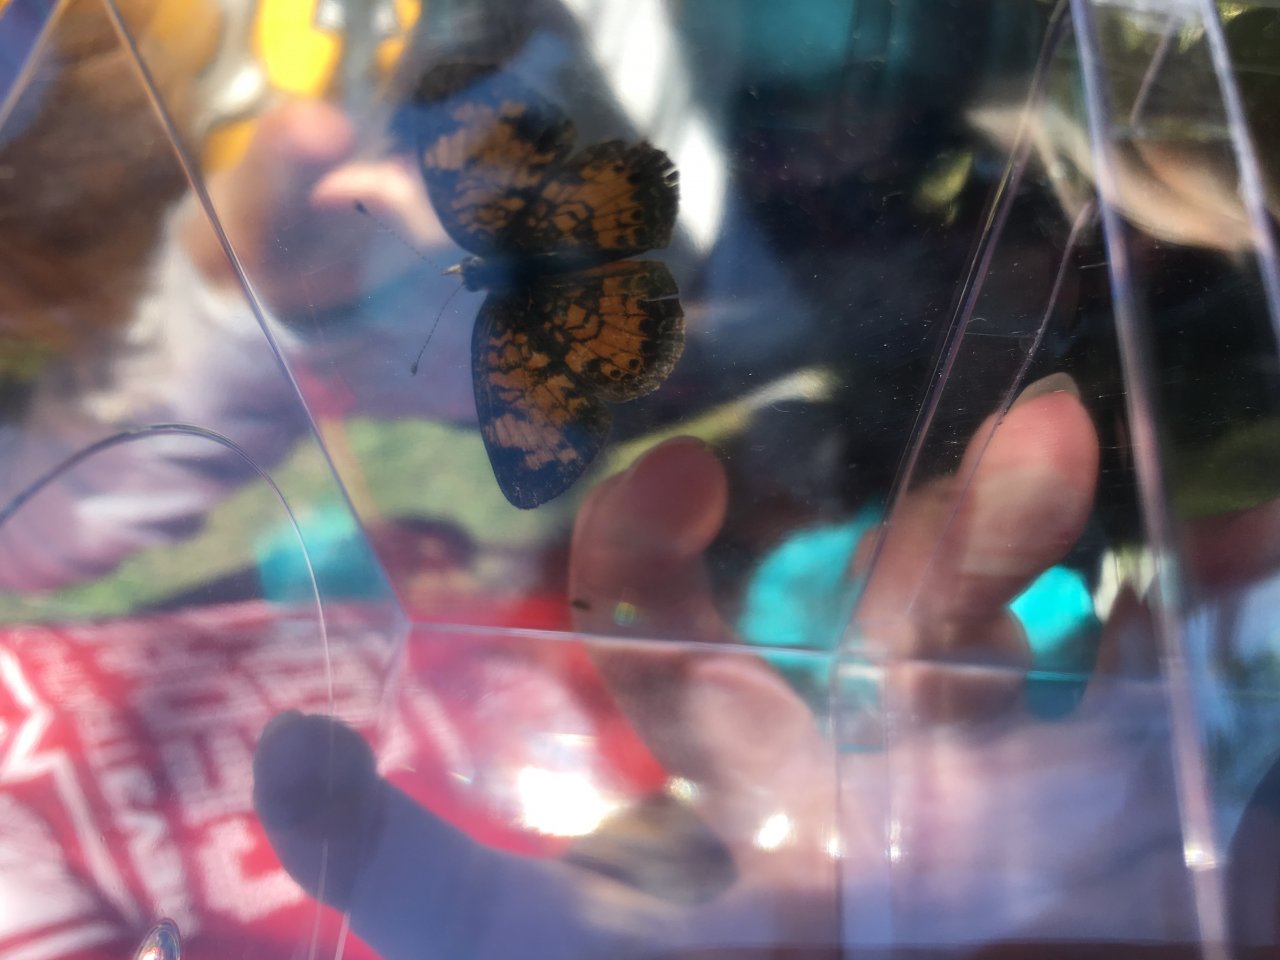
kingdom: Animalia
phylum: Arthropoda
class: Insecta
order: Lepidoptera
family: Nymphalidae
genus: Phyciodes
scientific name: Phyciodes tharos
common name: Pearl Crescent
